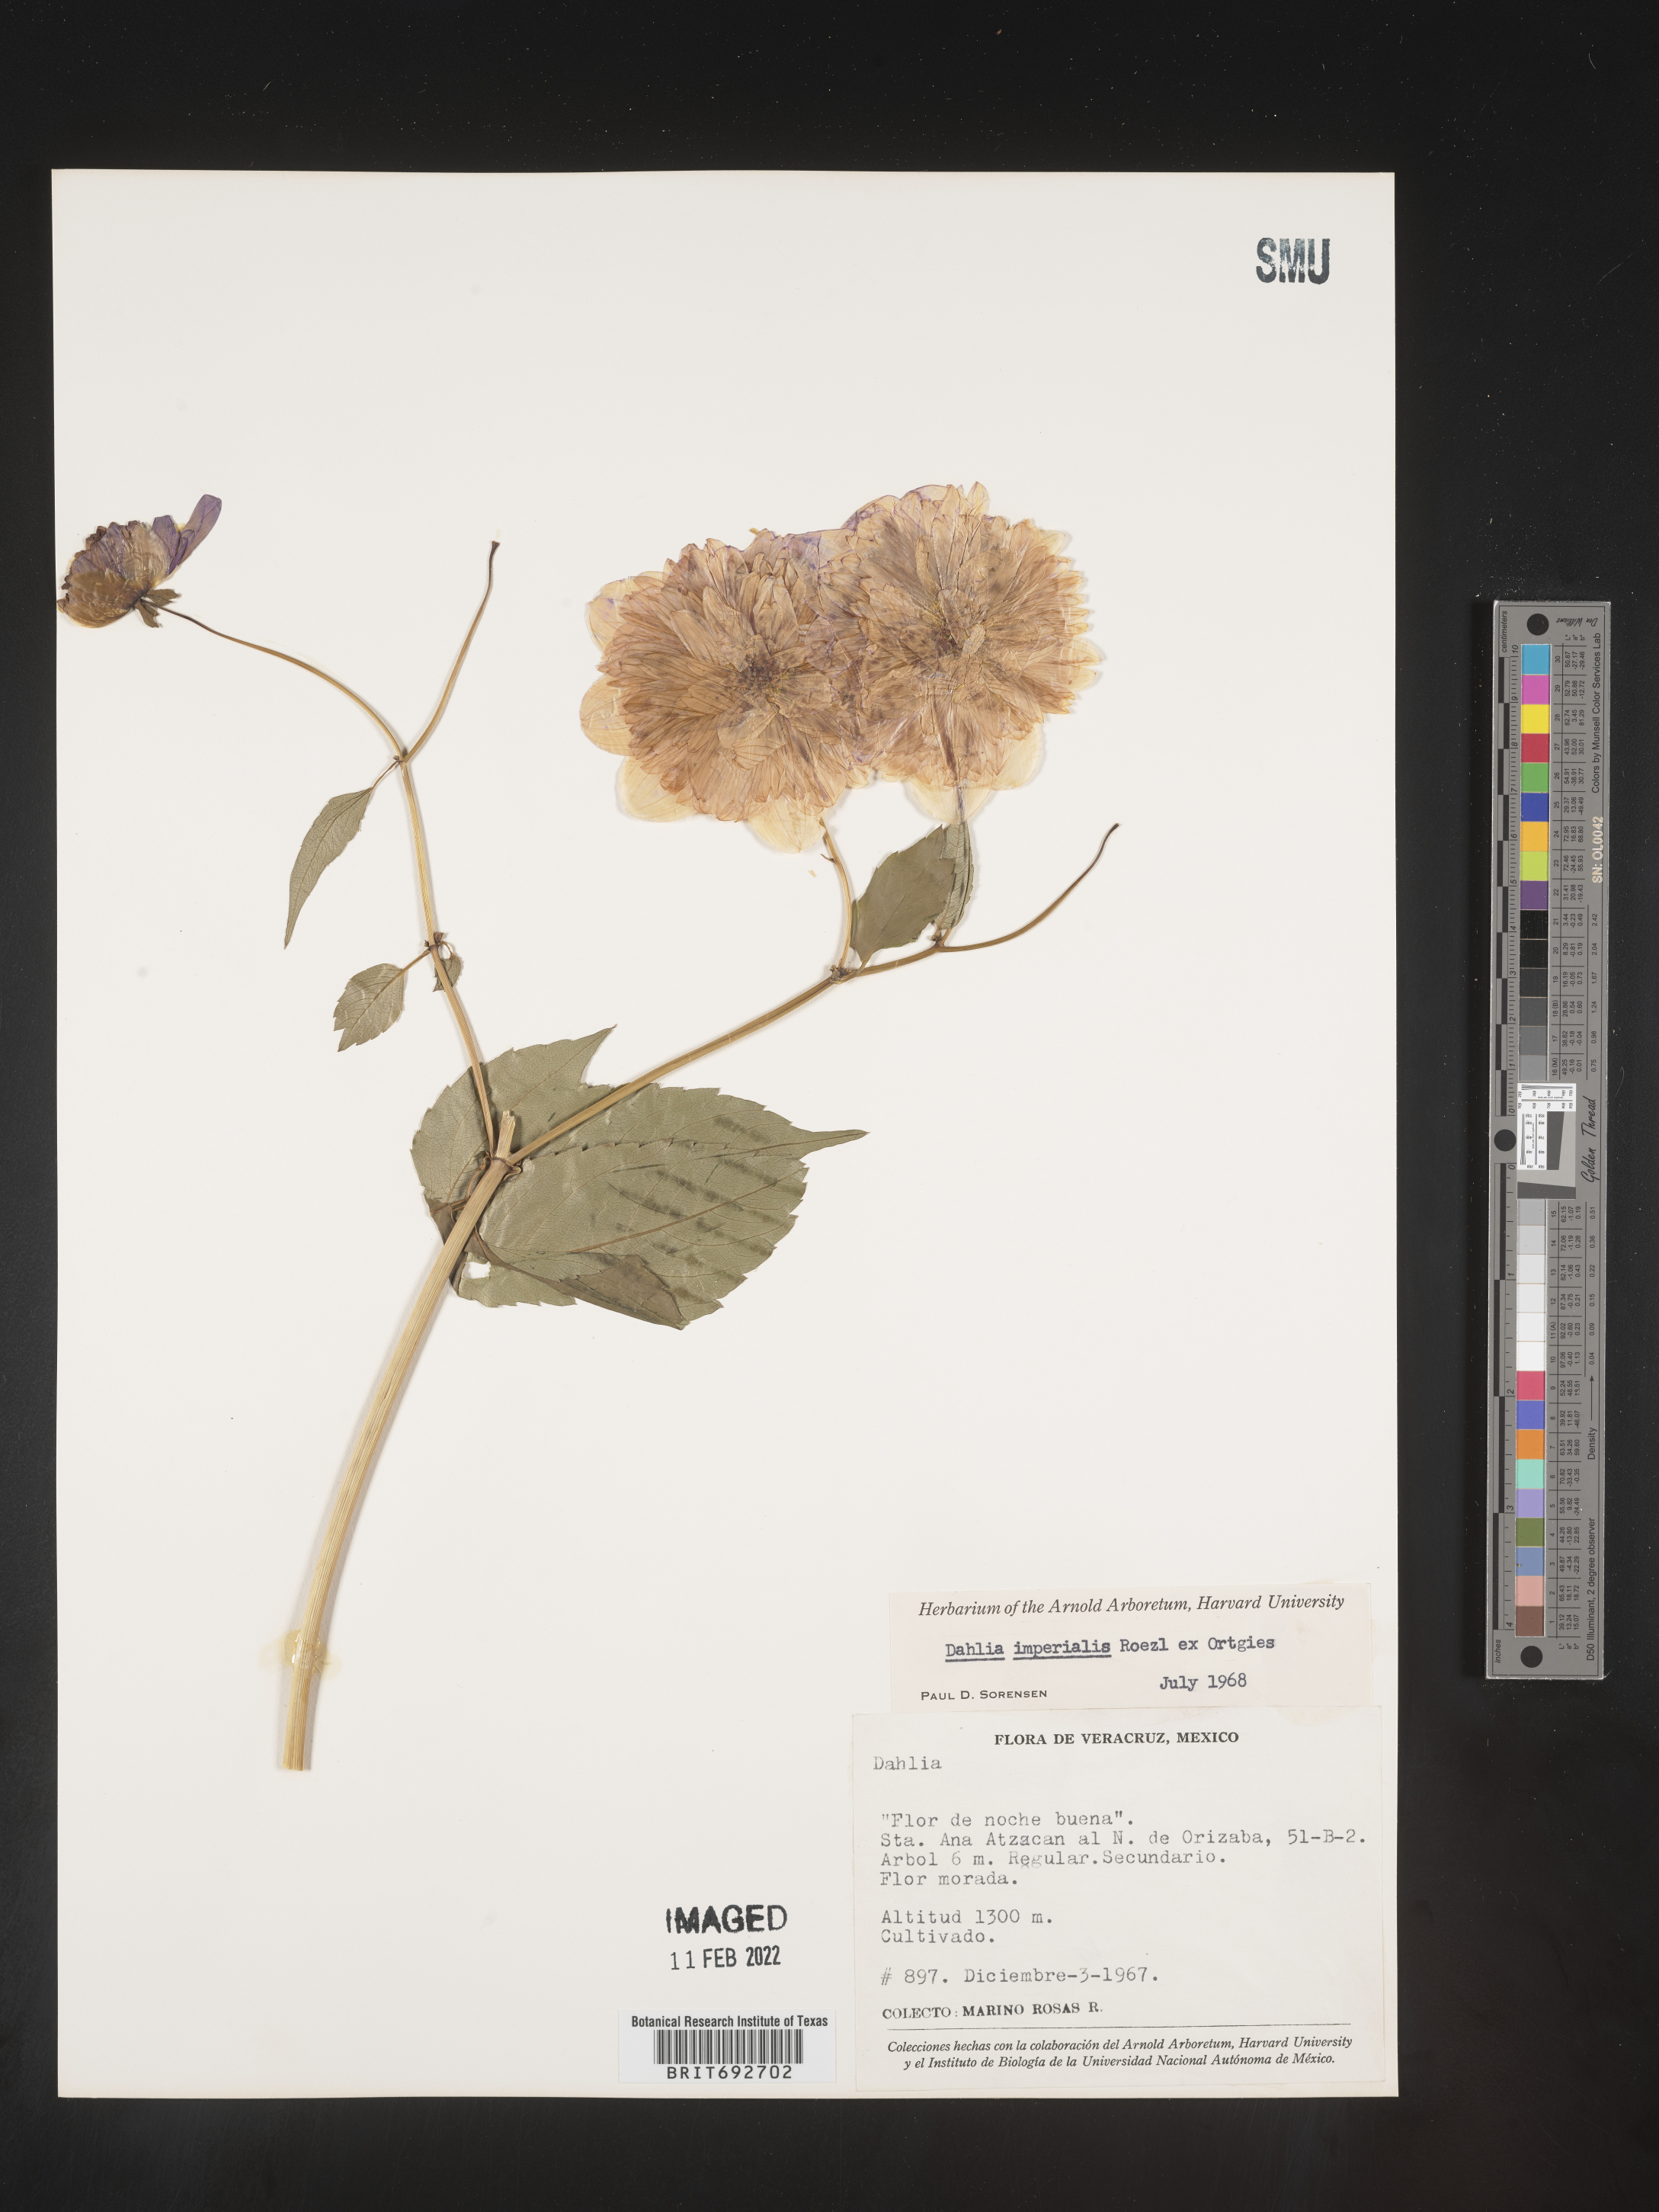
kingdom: Plantae
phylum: Tracheophyta
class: Magnoliopsida
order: Asterales
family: Asteraceae
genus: Dahlia
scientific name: Dahlia
